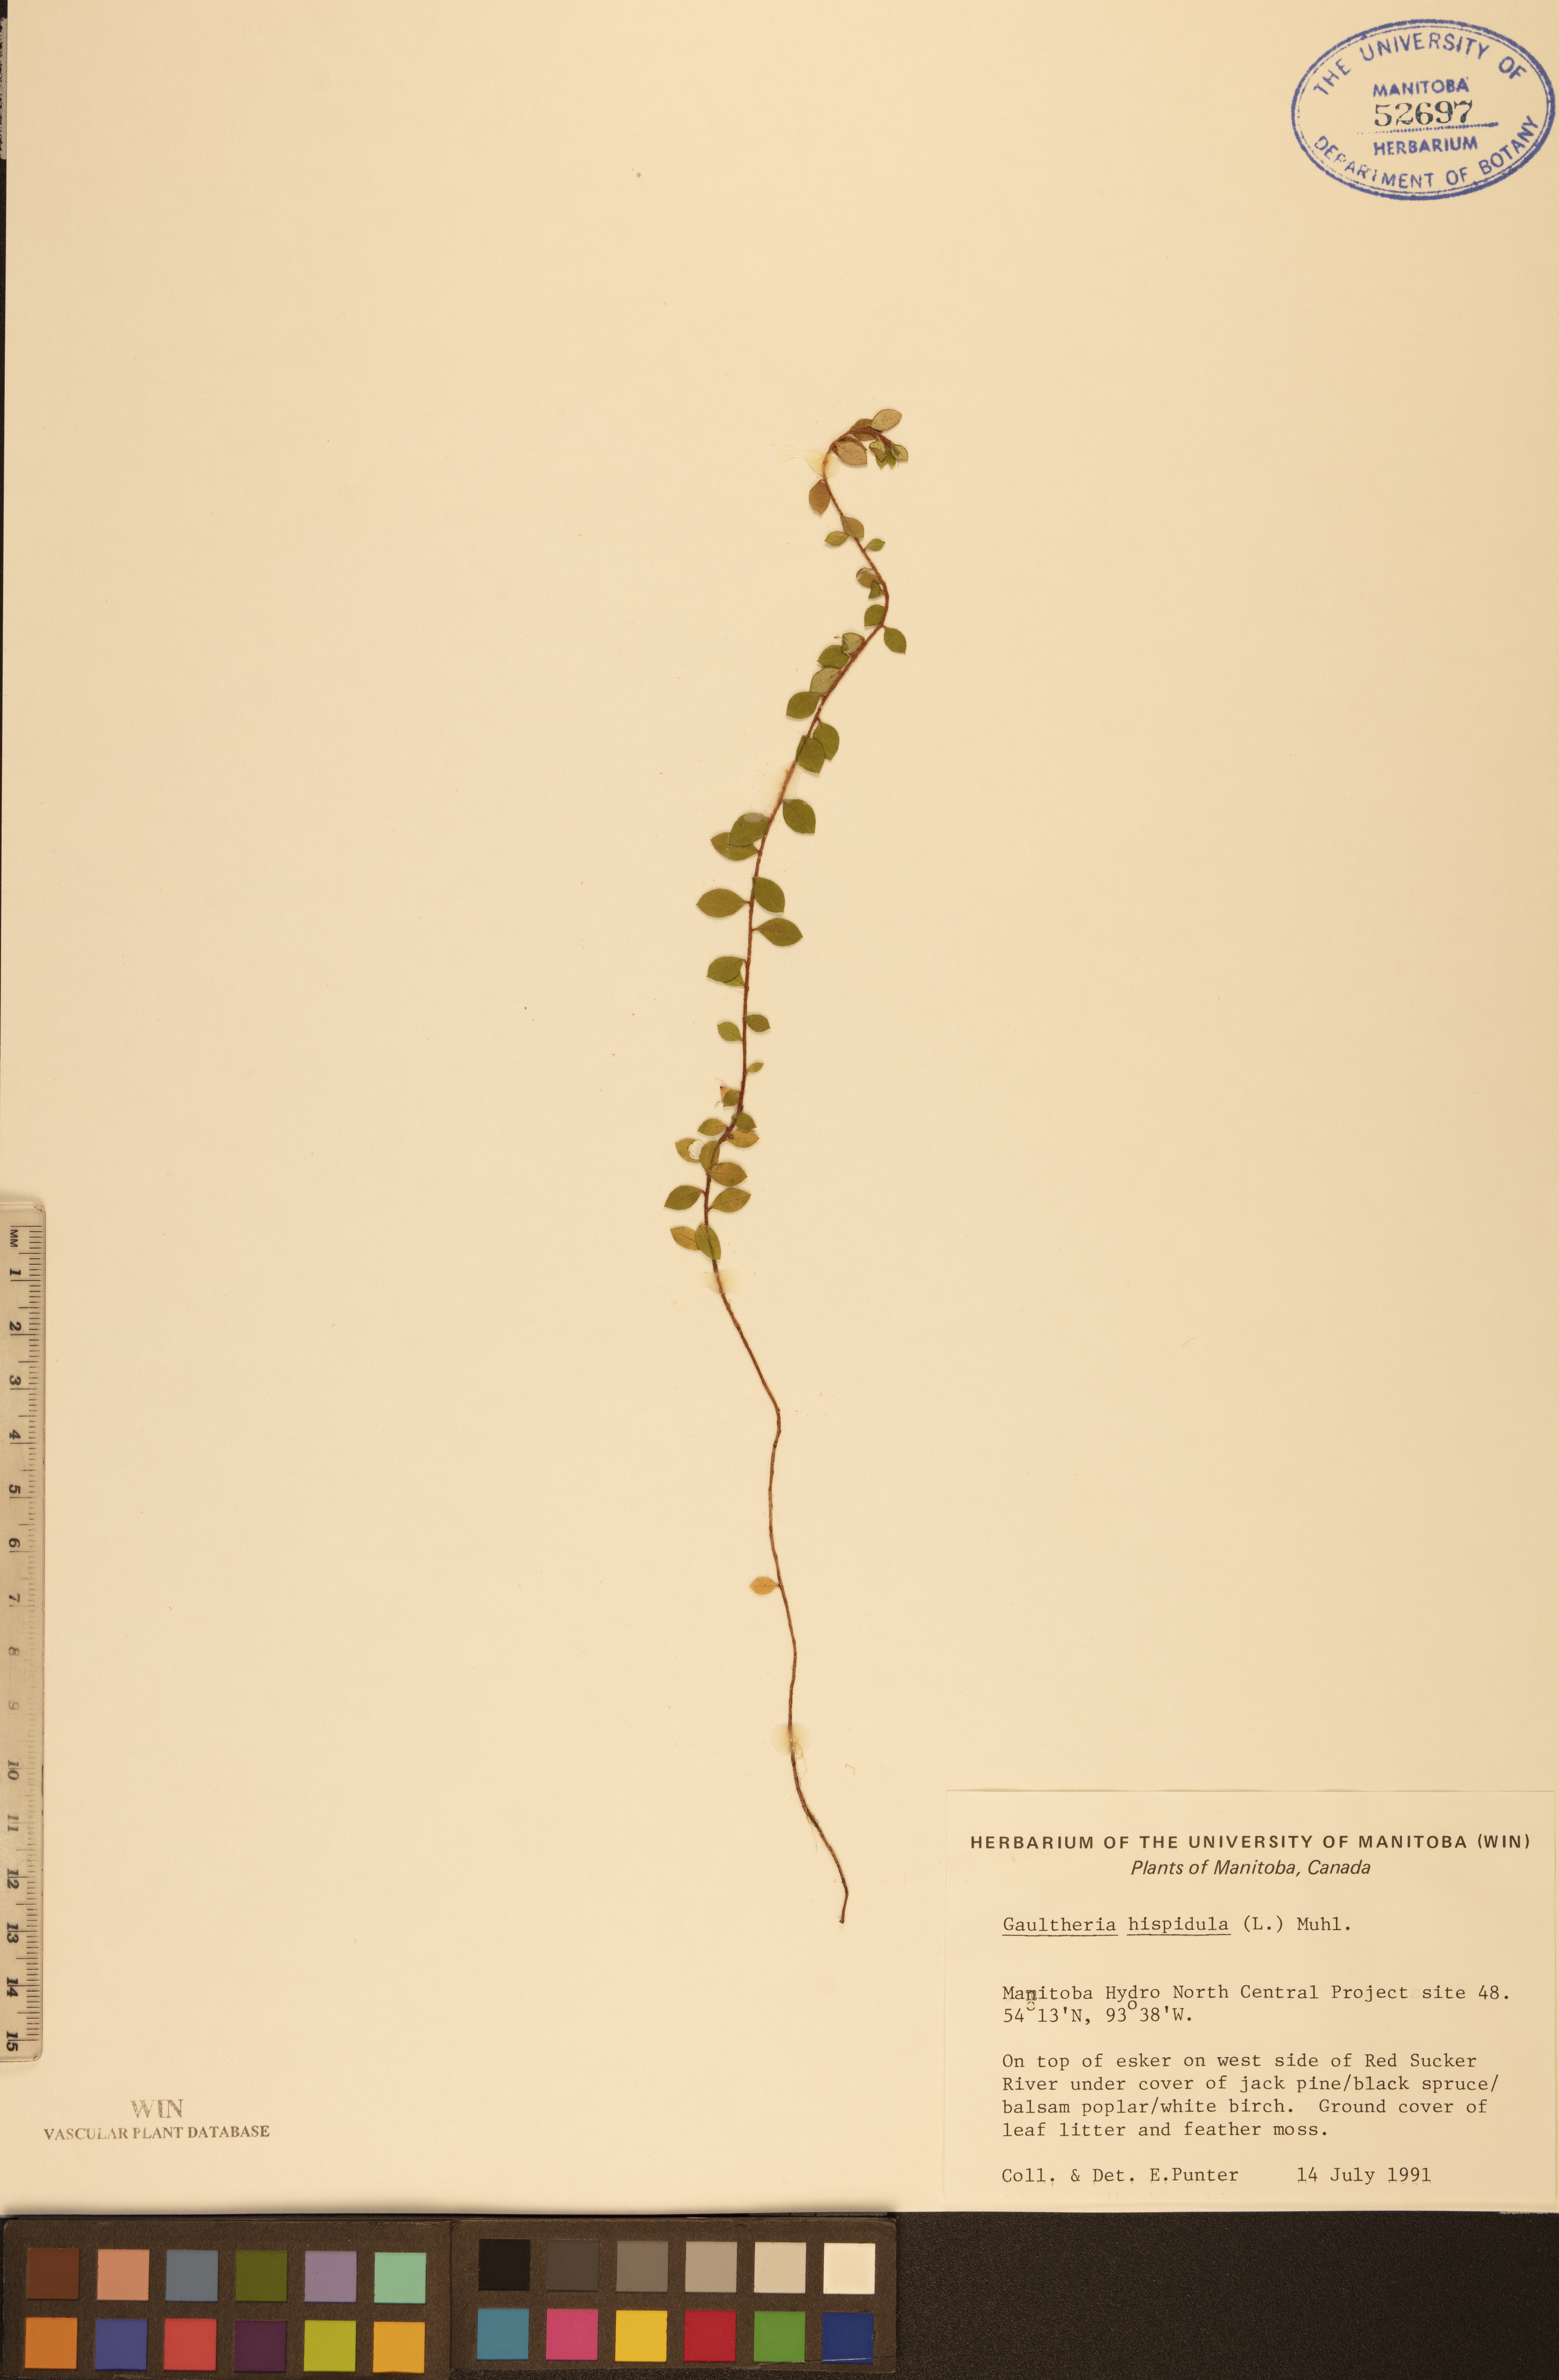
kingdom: Plantae
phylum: Tracheophyta
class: Magnoliopsida
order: Ericales
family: Ericaceae
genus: Gaultheria
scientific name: Gaultheria hispidula
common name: Cancer wintergreen
